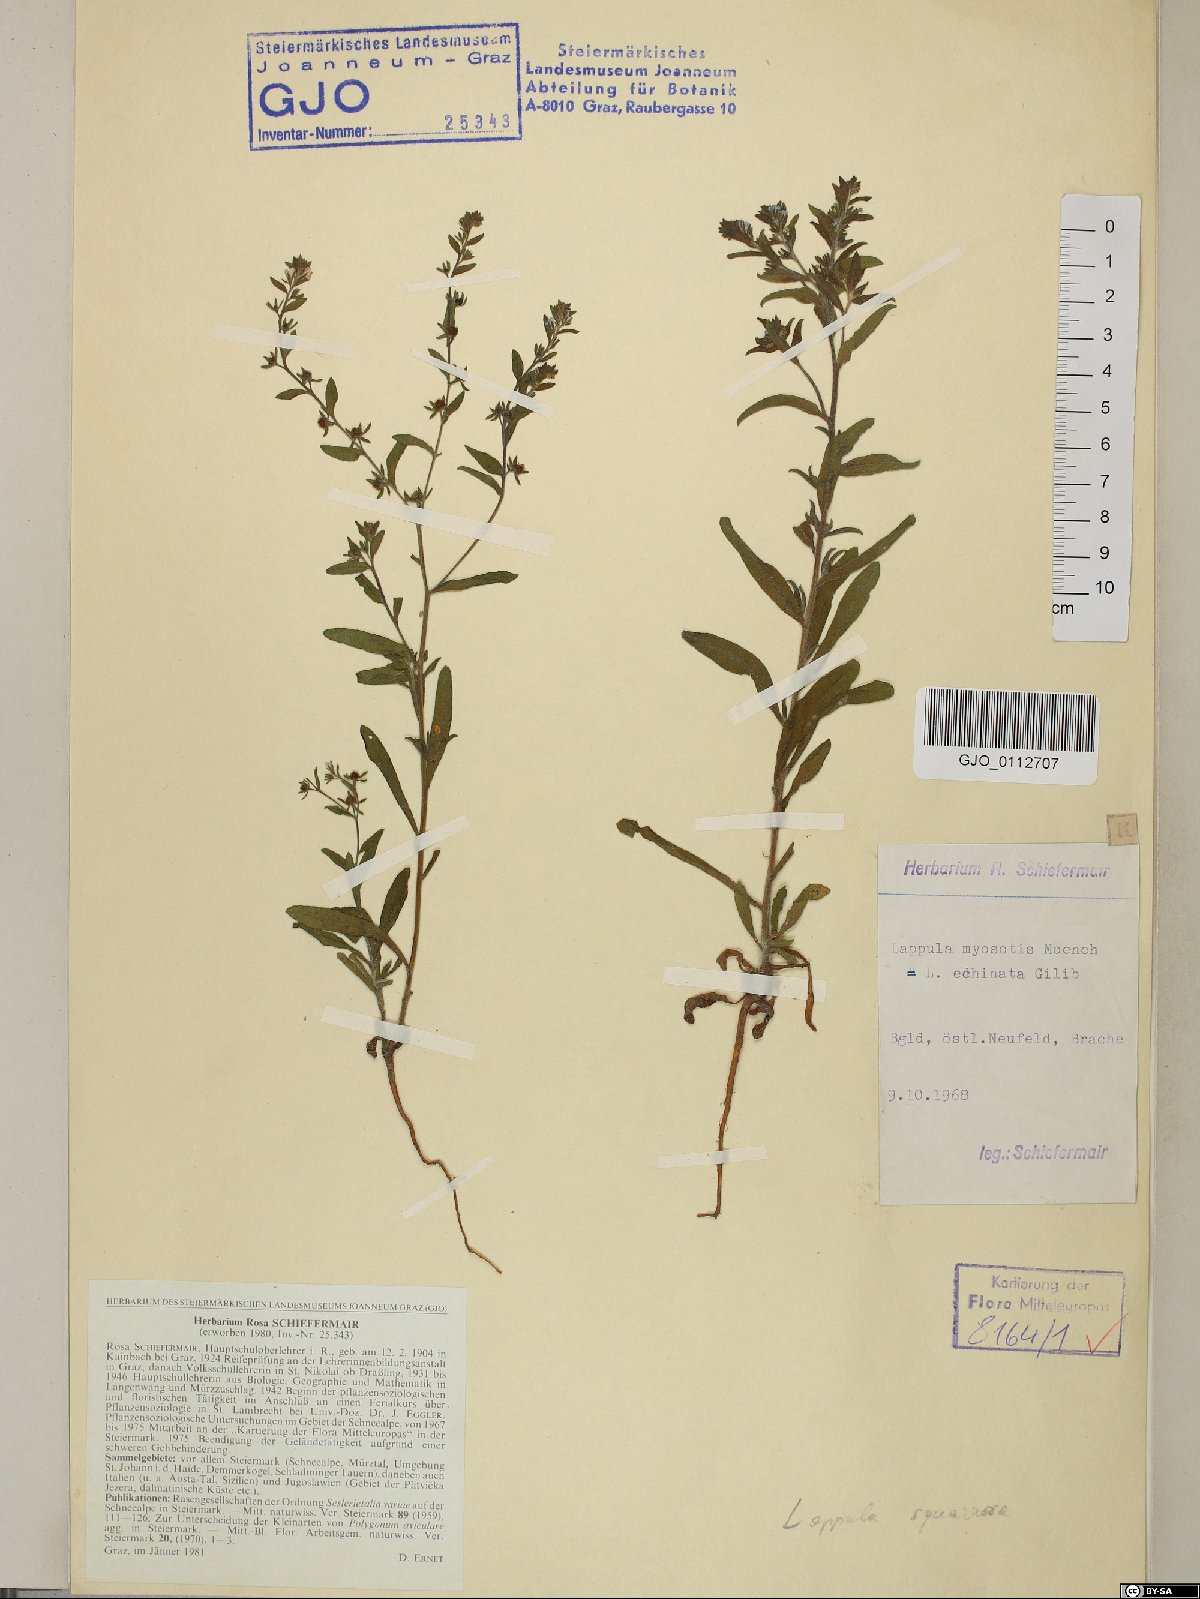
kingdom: Plantae
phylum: Tracheophyta
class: Magnoliopsida
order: Boraginales
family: Boraginaceae
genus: Lappula
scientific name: Lappula squarrosa
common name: European stickseed
